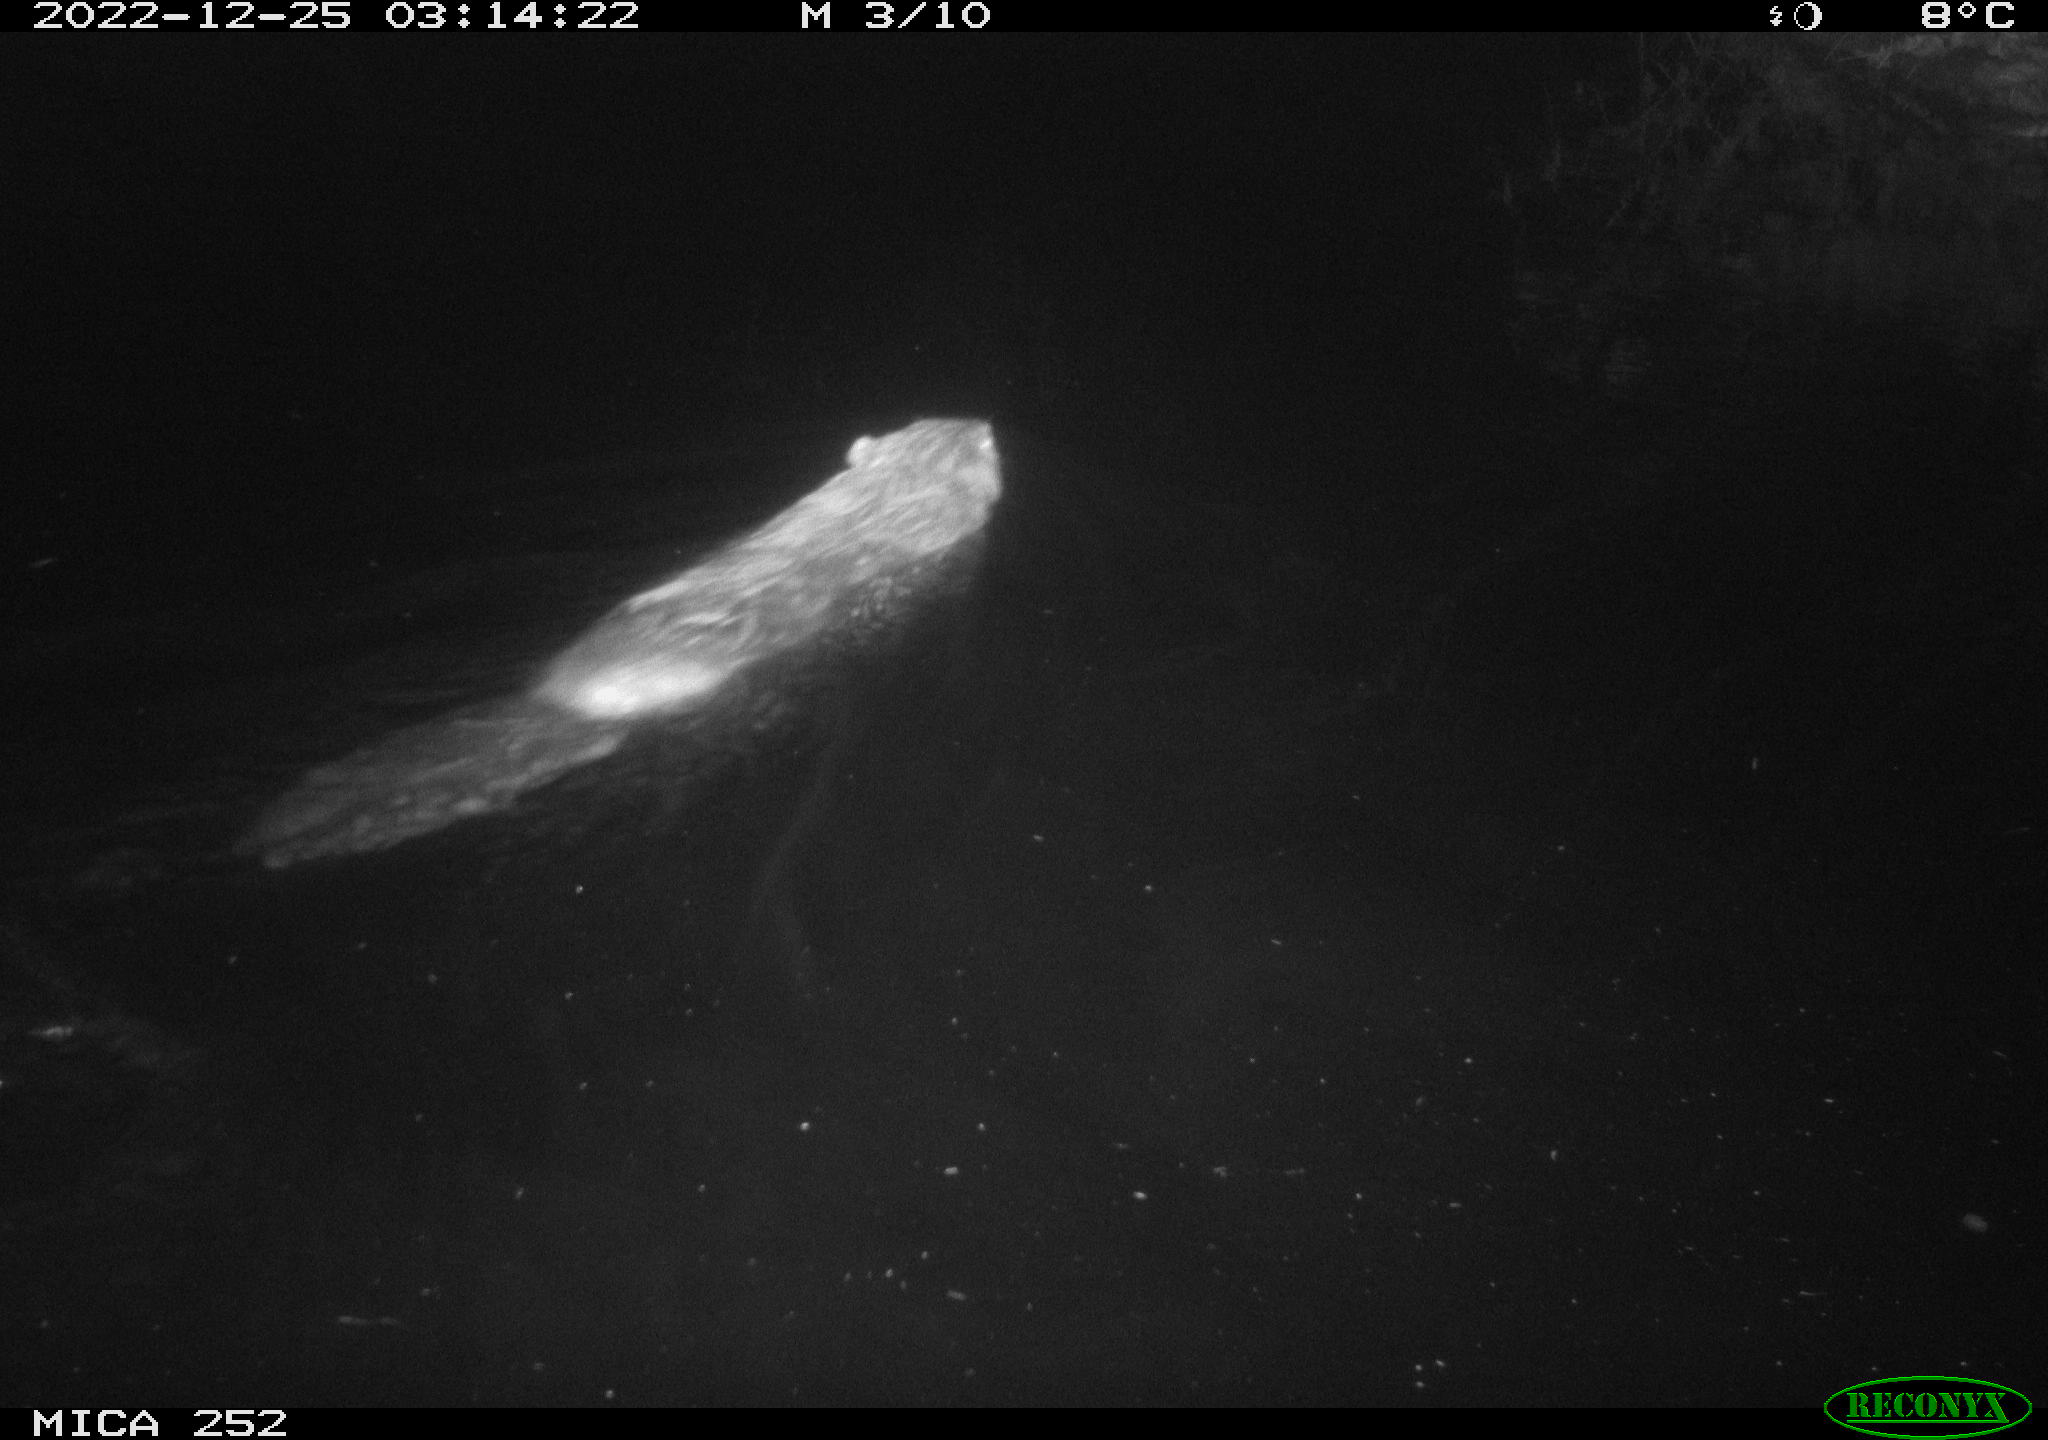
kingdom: Animalia
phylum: Chordata
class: Mammalia
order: Rodentia
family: Castoridae
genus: Castor
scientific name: Castor fiber
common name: Eurasian beaver
